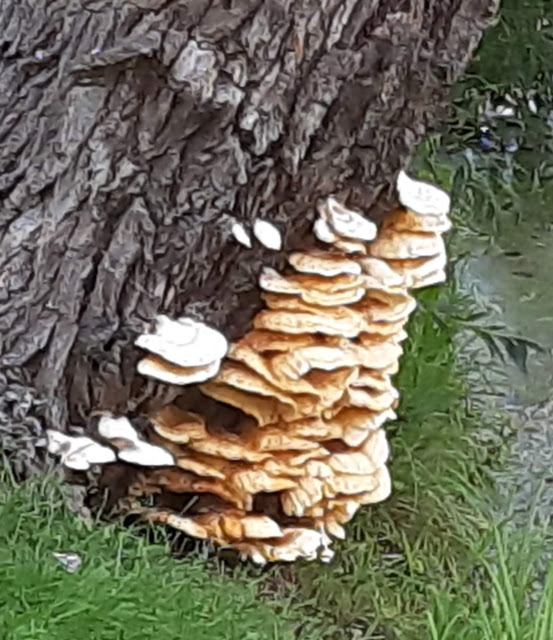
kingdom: Fungi
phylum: Basidiomycota
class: Agaricomycetes
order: Polyporales
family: Laetiporaceae
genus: Laetiporus
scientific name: Laetiporus sulphureus
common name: svovlporesvamp
